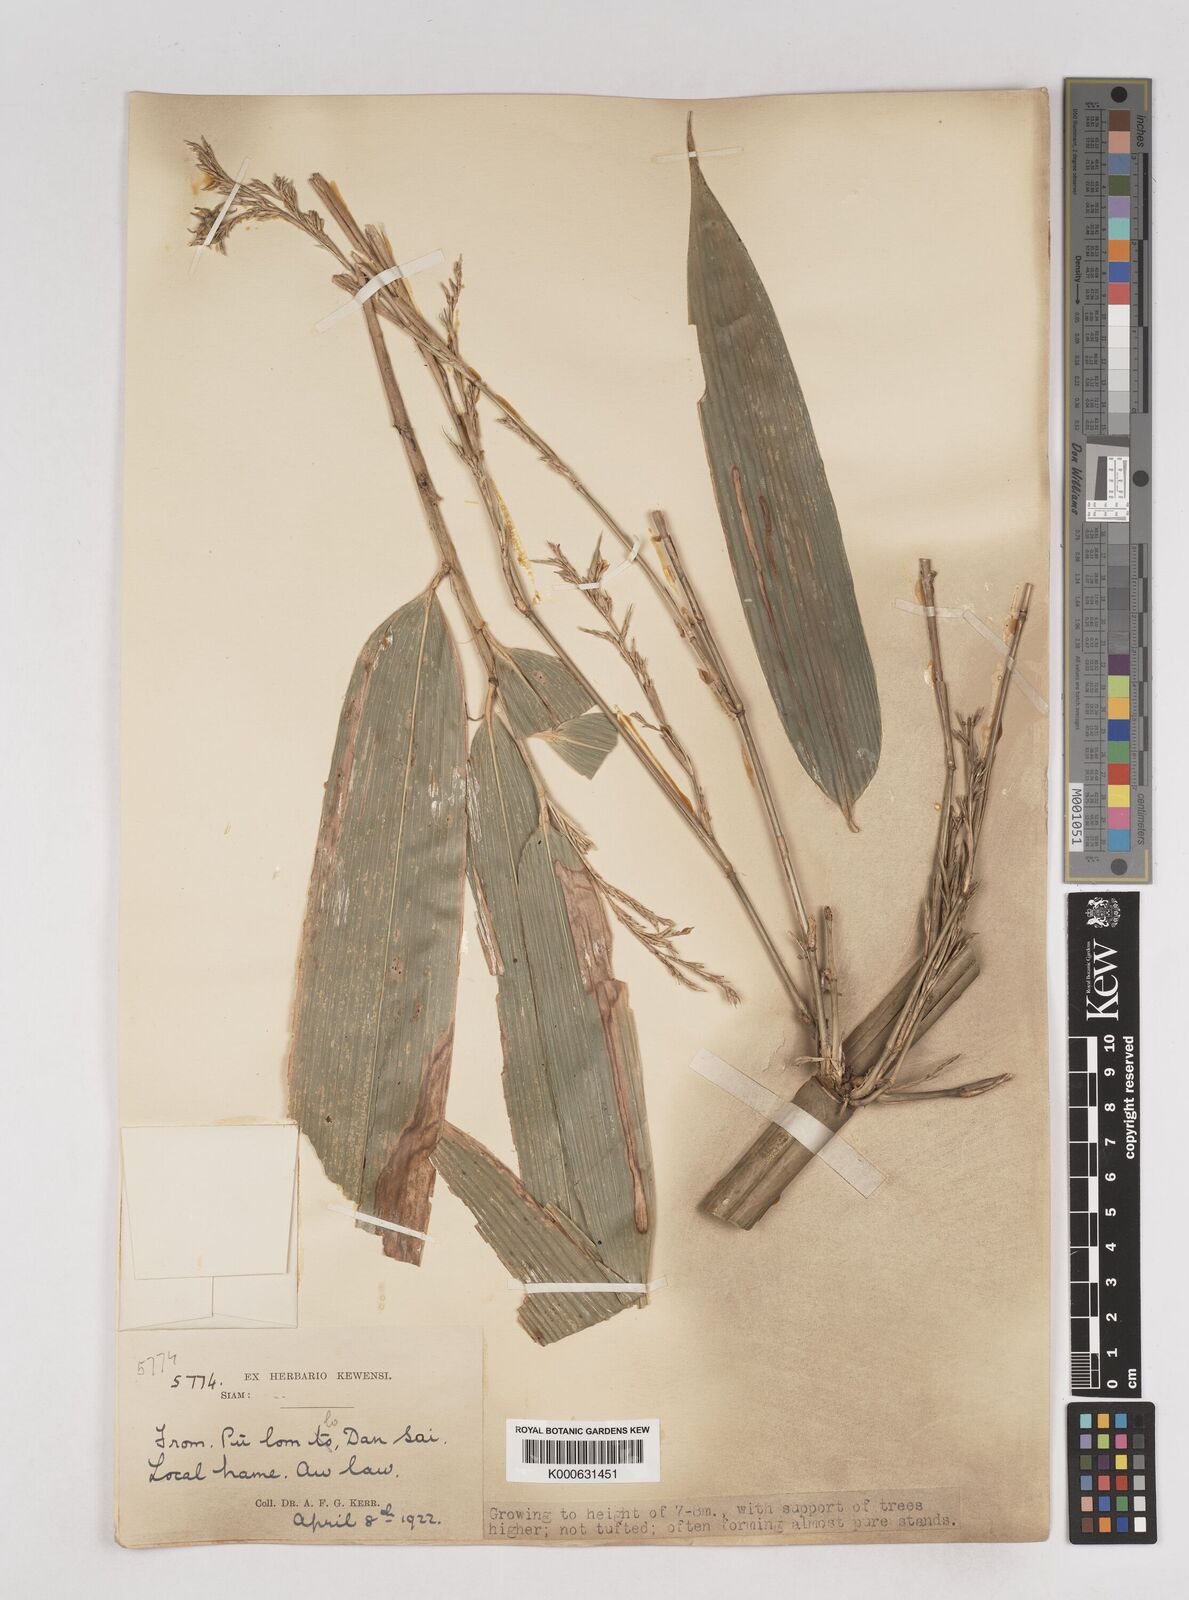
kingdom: Plantae
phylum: Tracheophyta
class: Liliopsida
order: Poales
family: Poaceae
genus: Schizostachyum
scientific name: Schizostachyum
